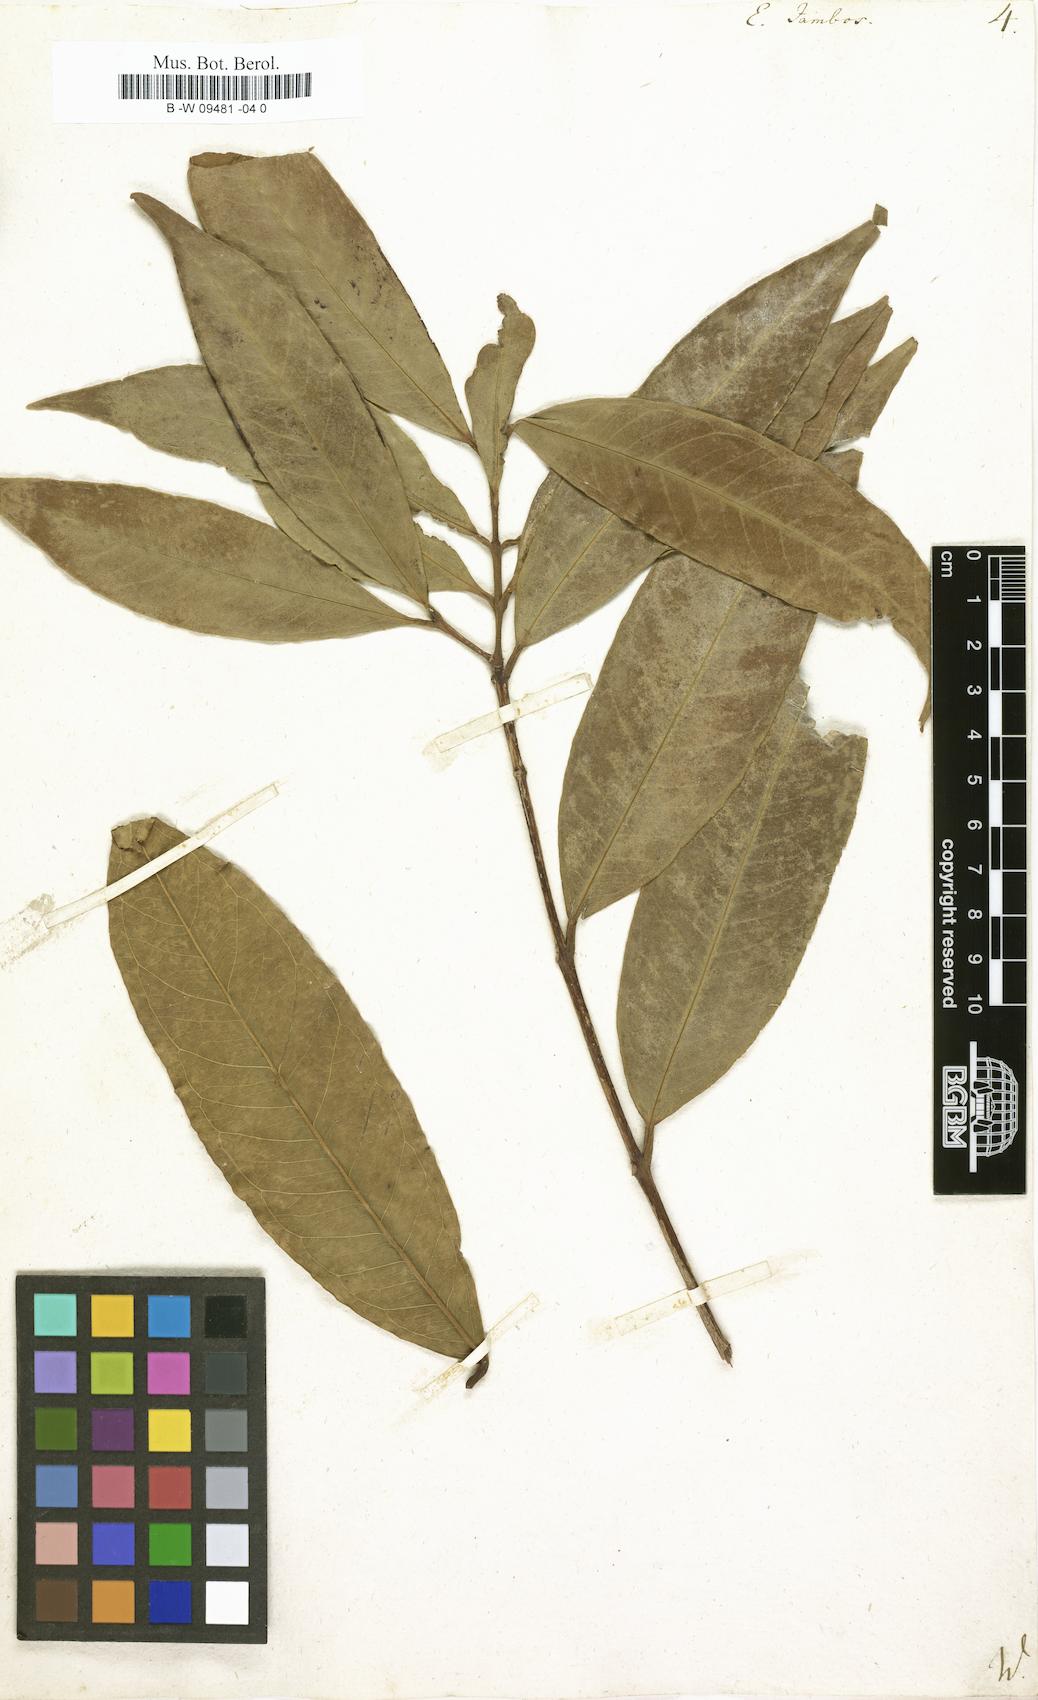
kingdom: Plantae
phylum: Tracheophyta
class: Magnoliopsida
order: Myrtales
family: Myrtaceae
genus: Syzygium
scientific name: Syzygium jambos
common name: Malabar plum
